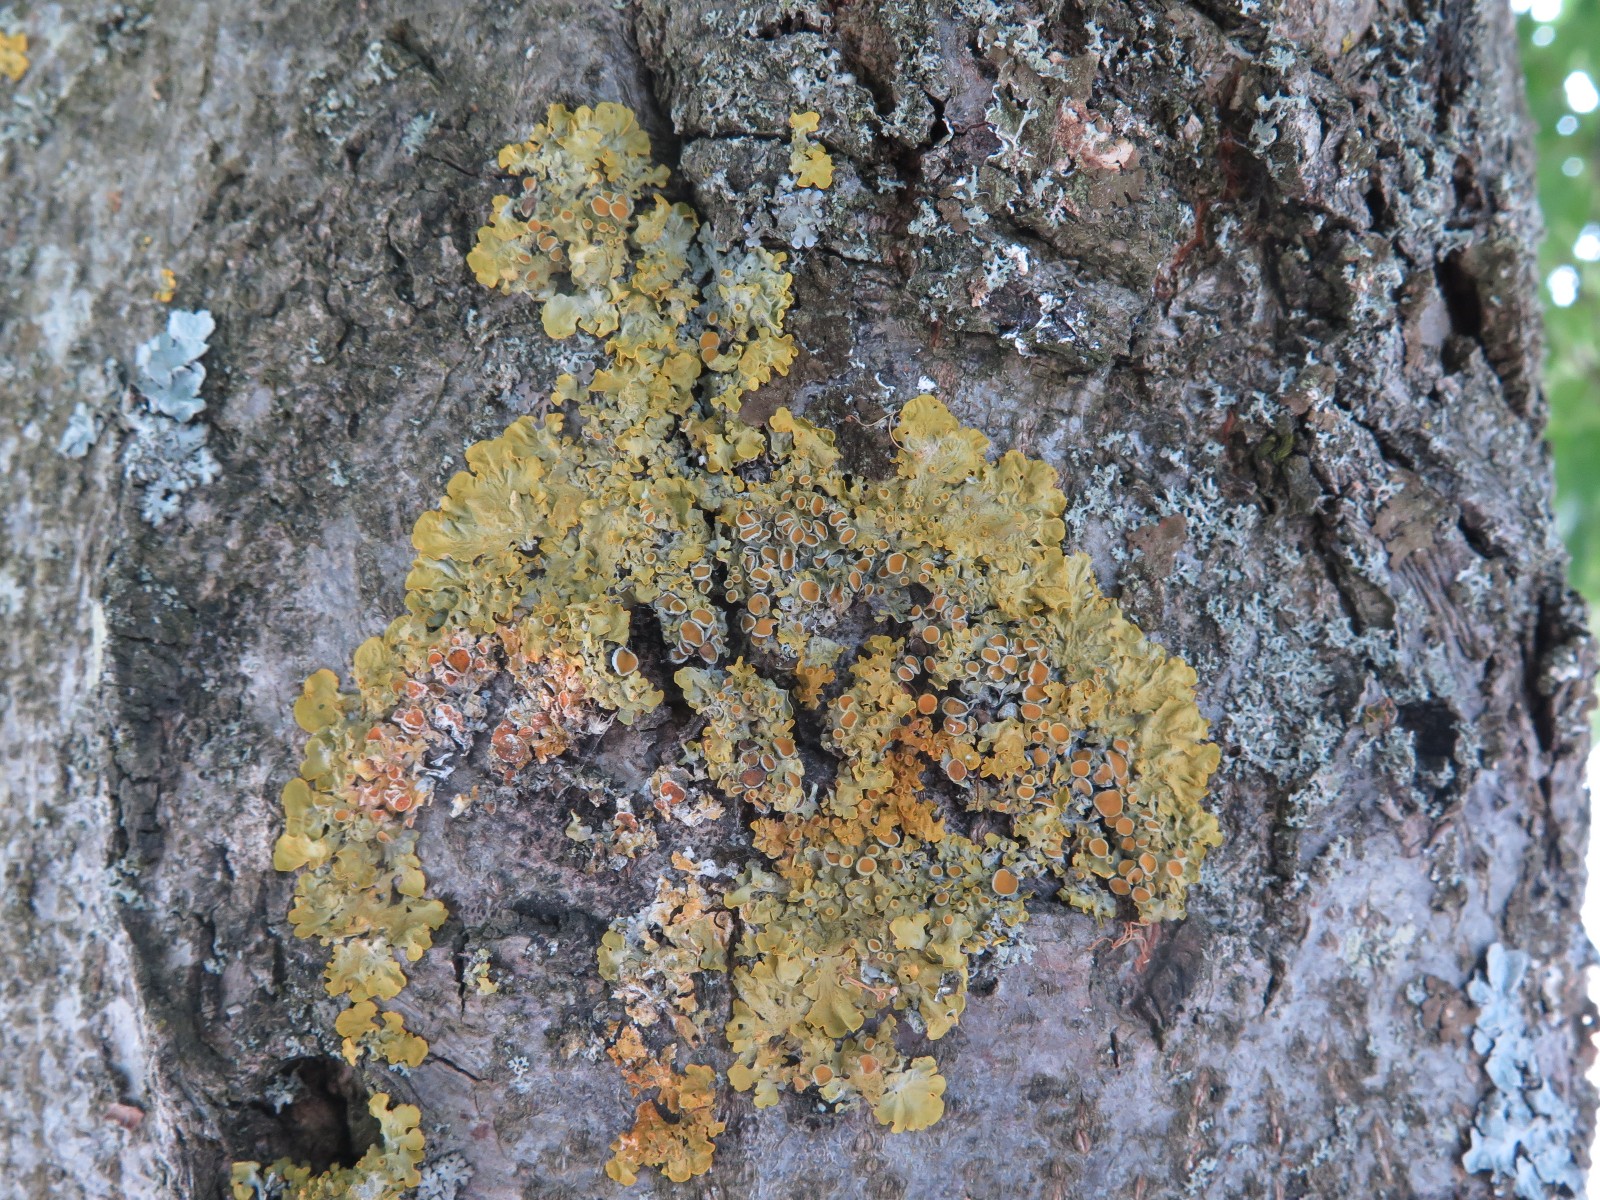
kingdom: Fungi
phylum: Ascomycota
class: Lecanoromycetes
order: Teloschistales
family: Teloschistaceae
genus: Xanthoria
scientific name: Xanthoria parietina
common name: almindelig væggelav
